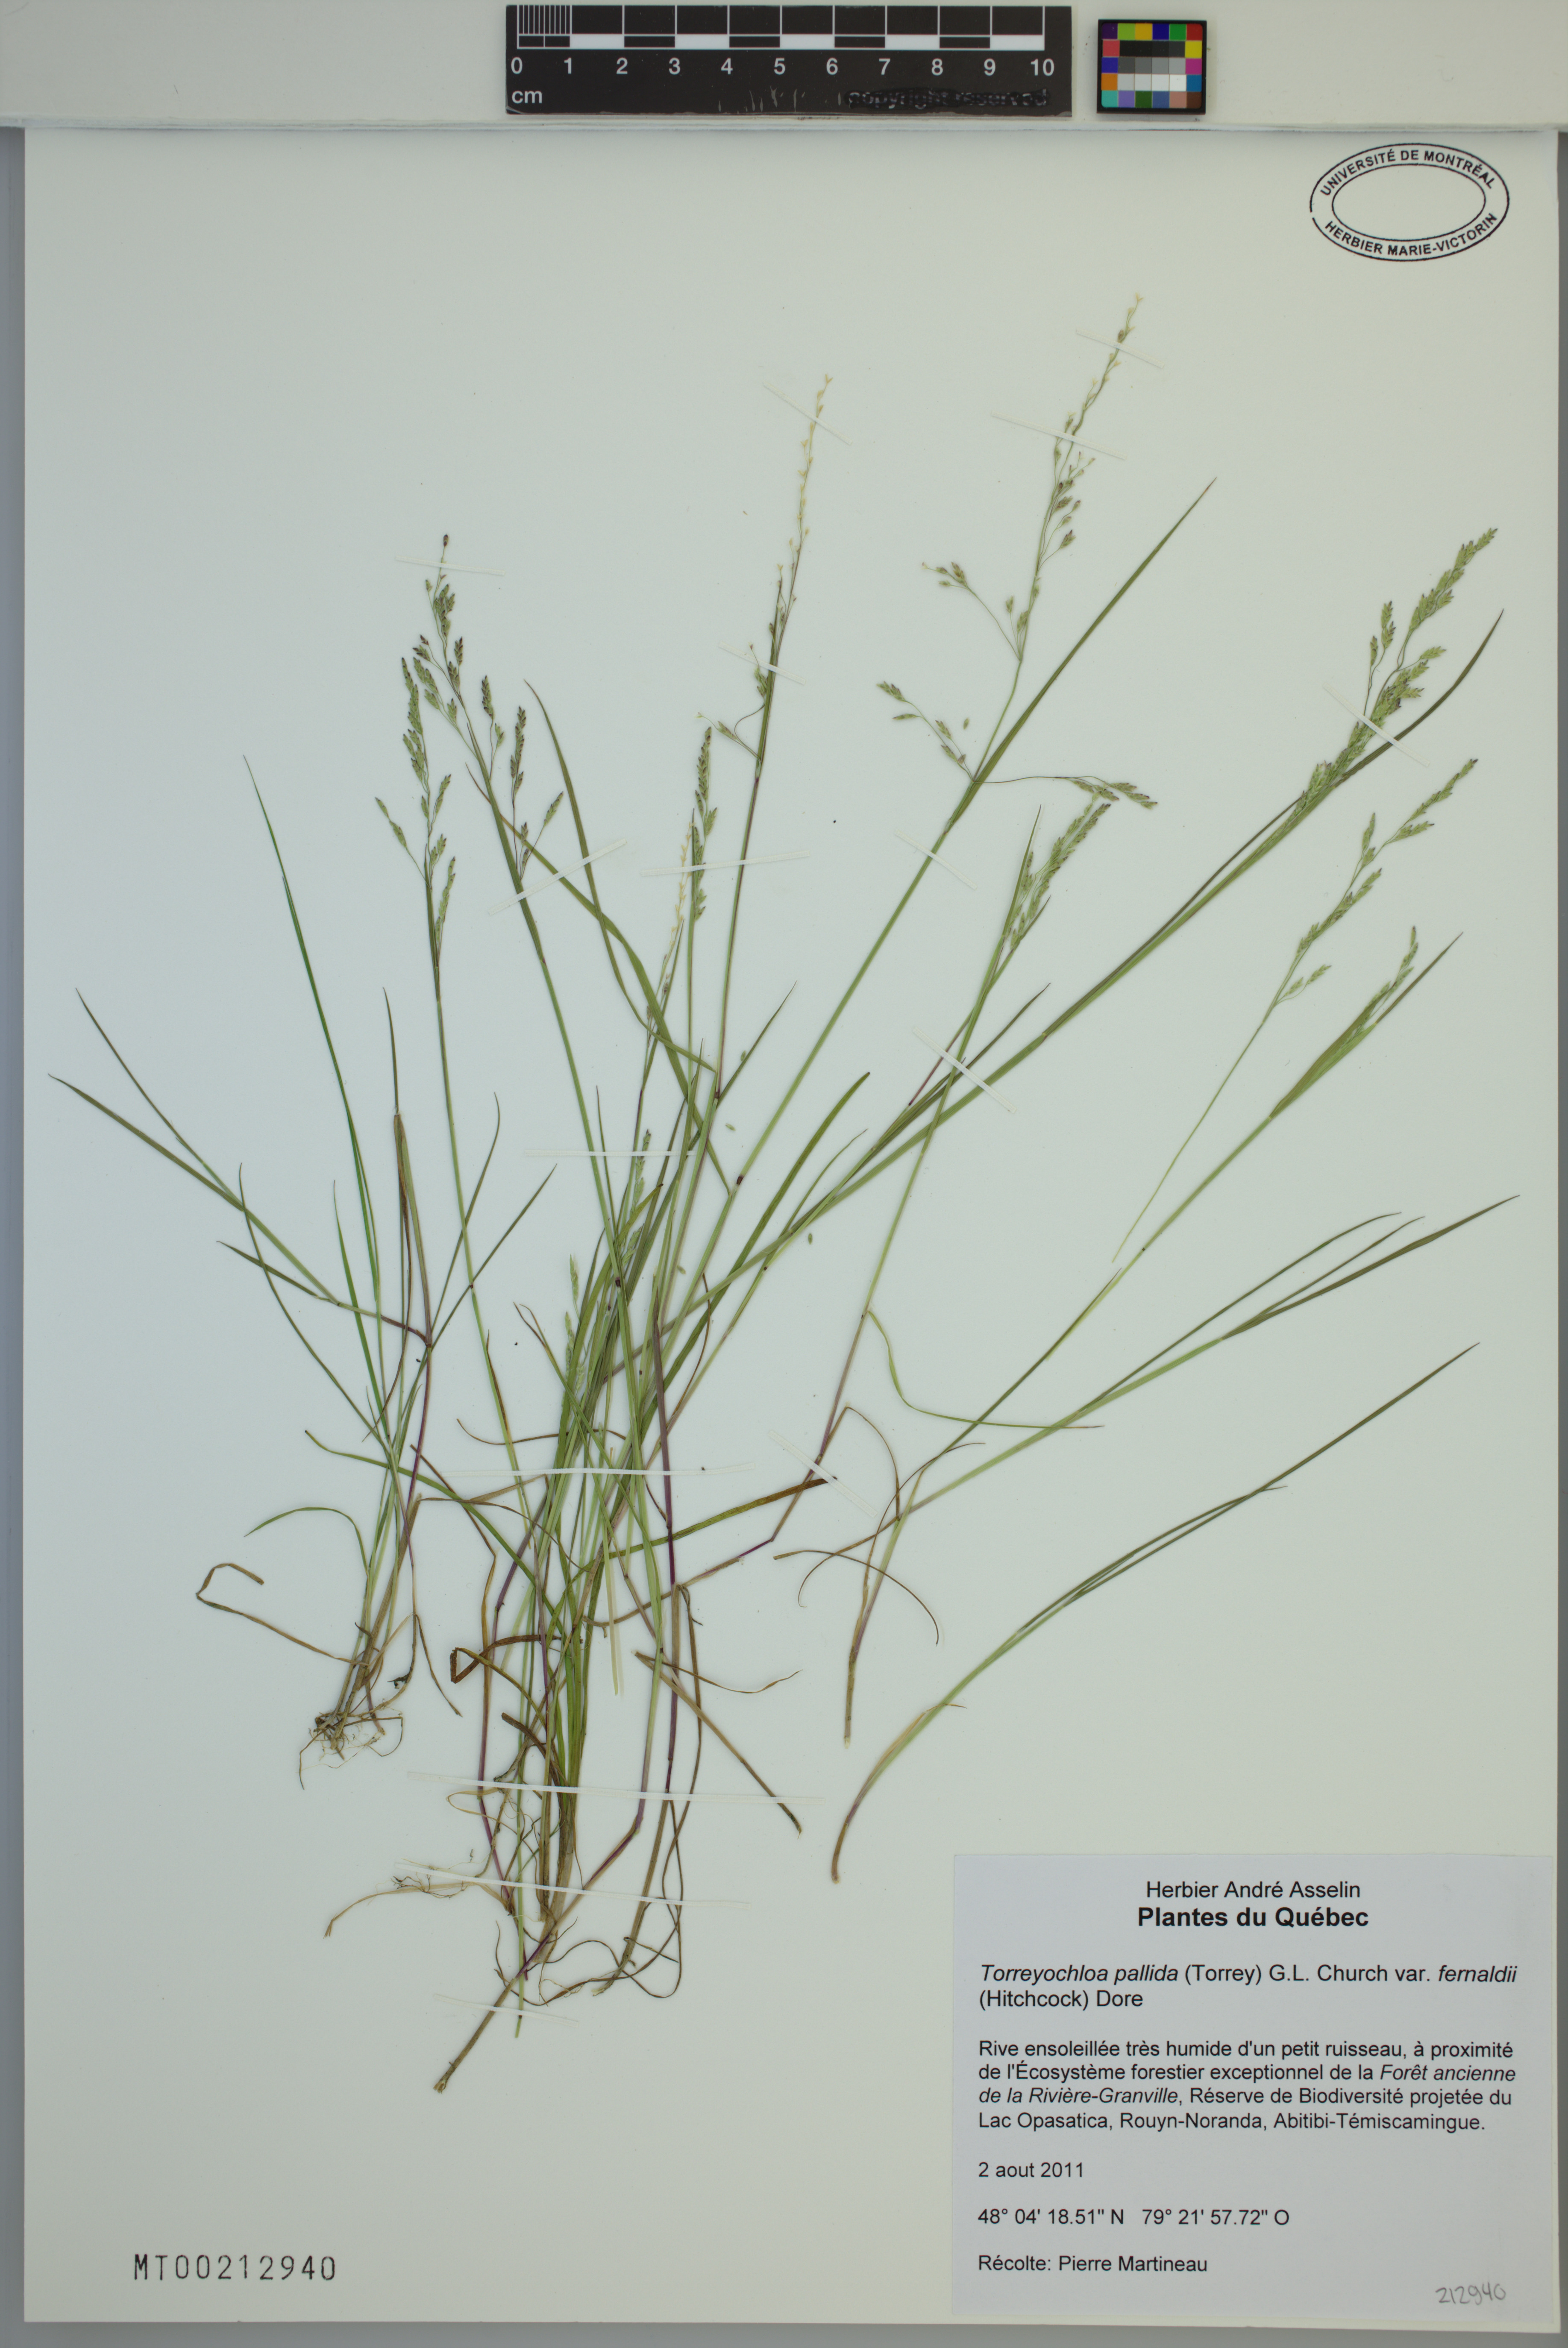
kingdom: Plantae
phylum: Tracheophyta
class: Liliopsida
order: Poales
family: Poaceae
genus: Torreyochloa
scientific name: Torreyochloa pallida
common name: Pale false mannagrass
